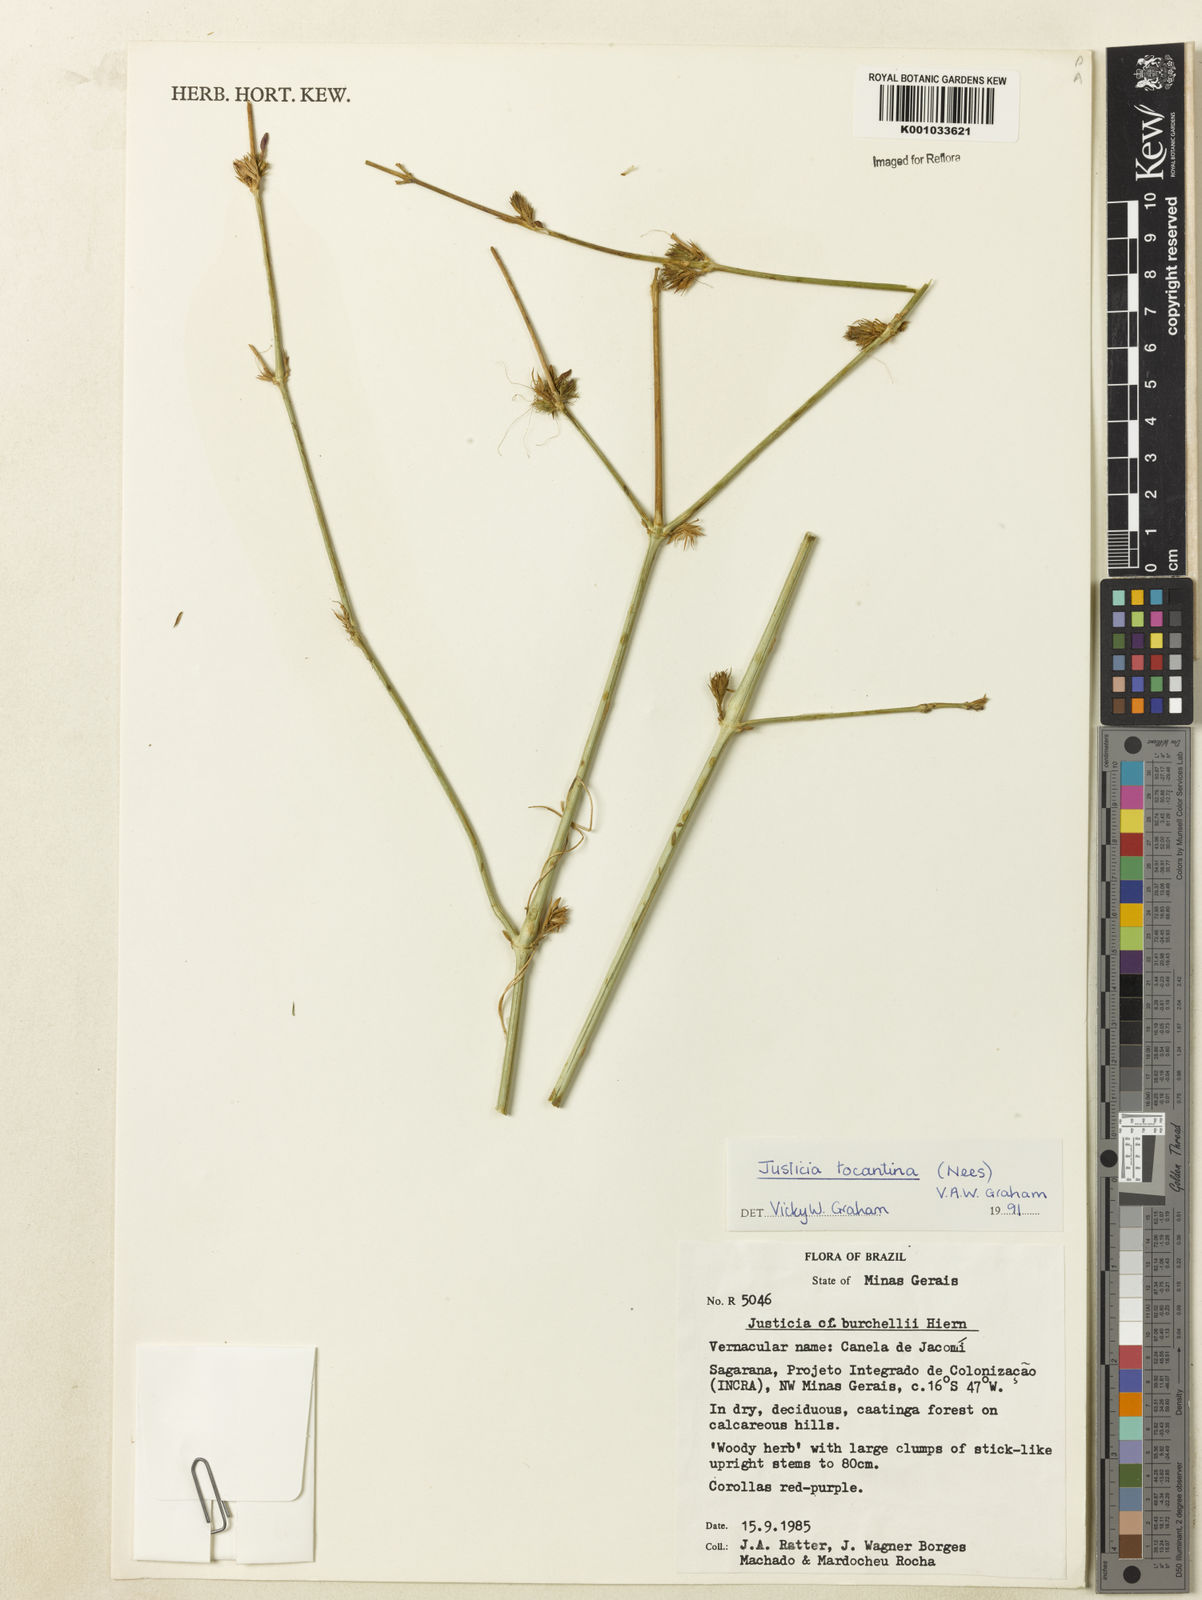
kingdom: Plantae
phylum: Tracheophyta
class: Magnoliopsida
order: Lamiales
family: Acanthaceae
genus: Justicia
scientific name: Justicia tocantina
